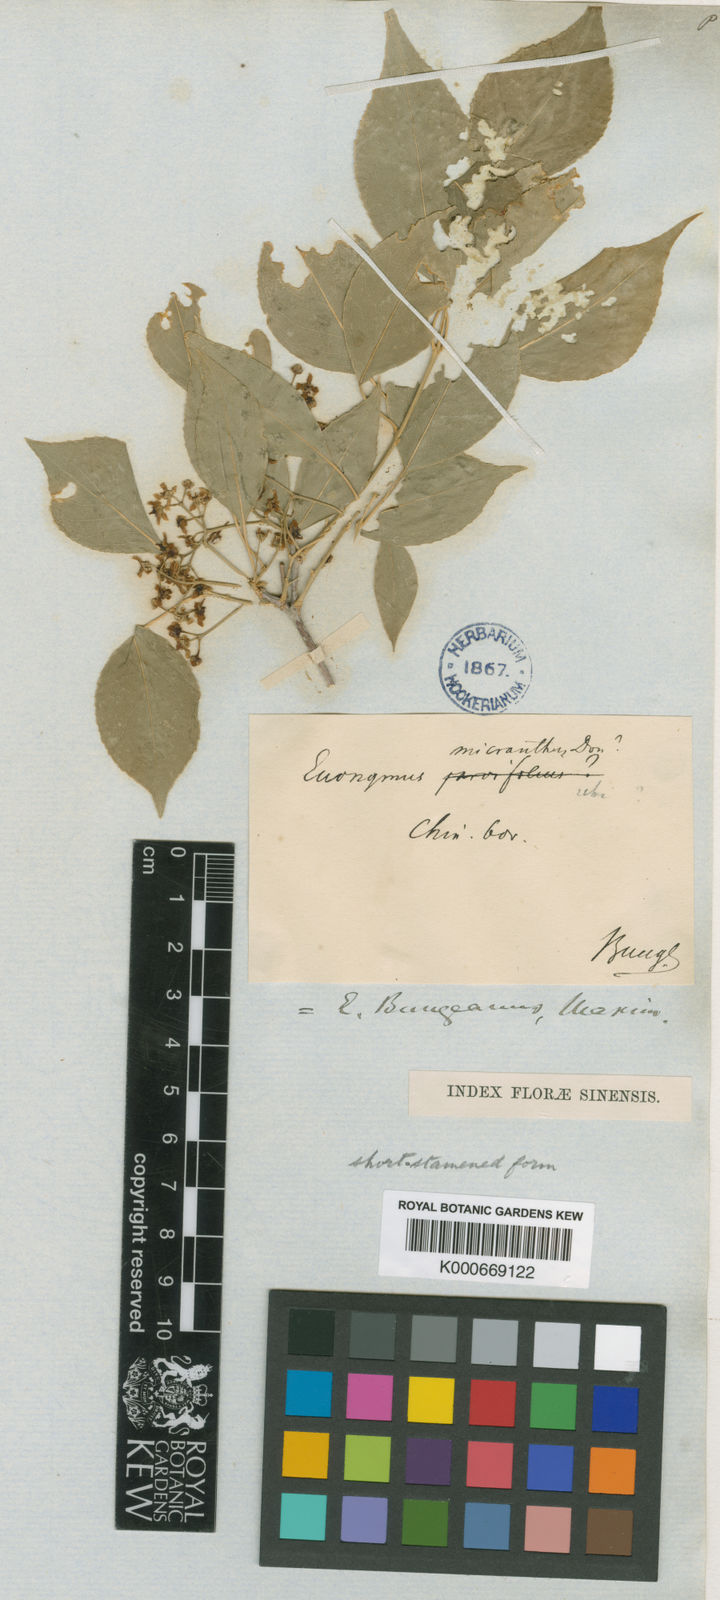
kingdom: Plantae
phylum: Tracheophyta
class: Magnoliopsida
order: Celastrales
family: Celastraceae
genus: Euonymus
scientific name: Euonymus maackii
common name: Hamilton's spindletree
